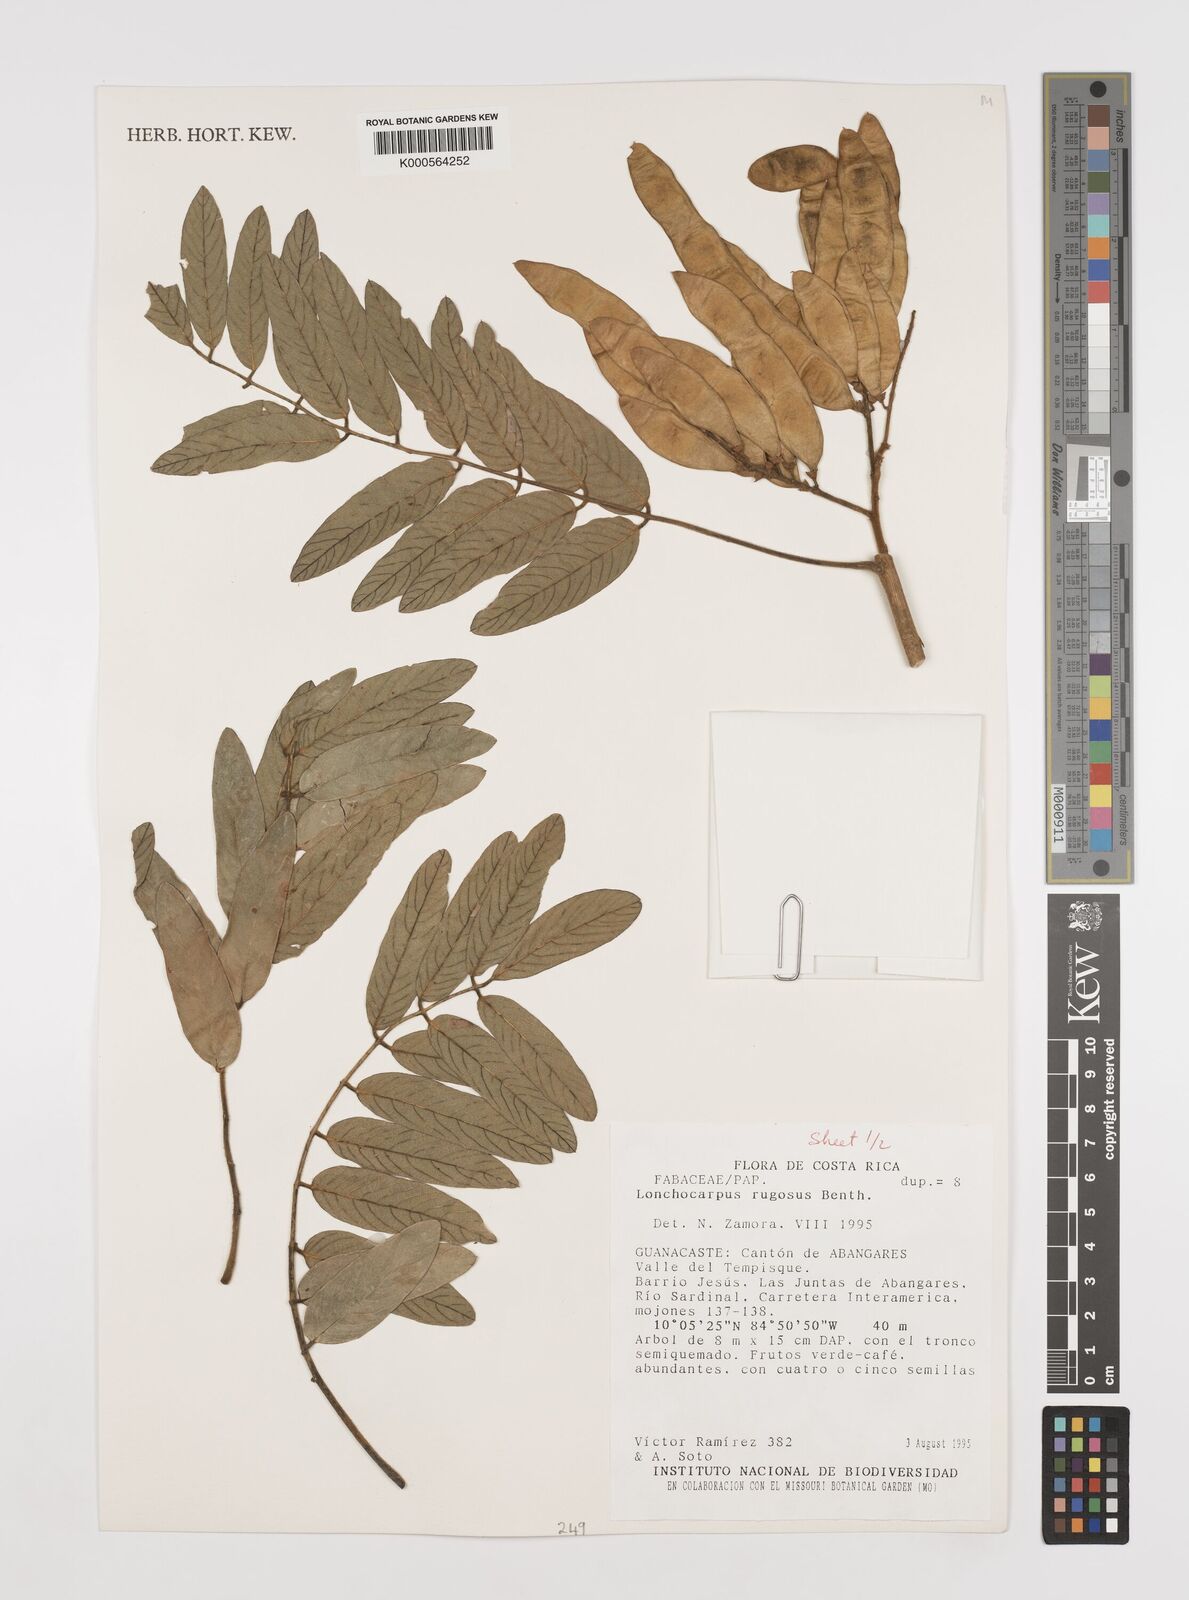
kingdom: Plantae
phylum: Tracheophyta
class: Magnoliopsida
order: Fabales
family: Fabaceae
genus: Lonchocarpus
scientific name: Lonchocarpus rugosus
